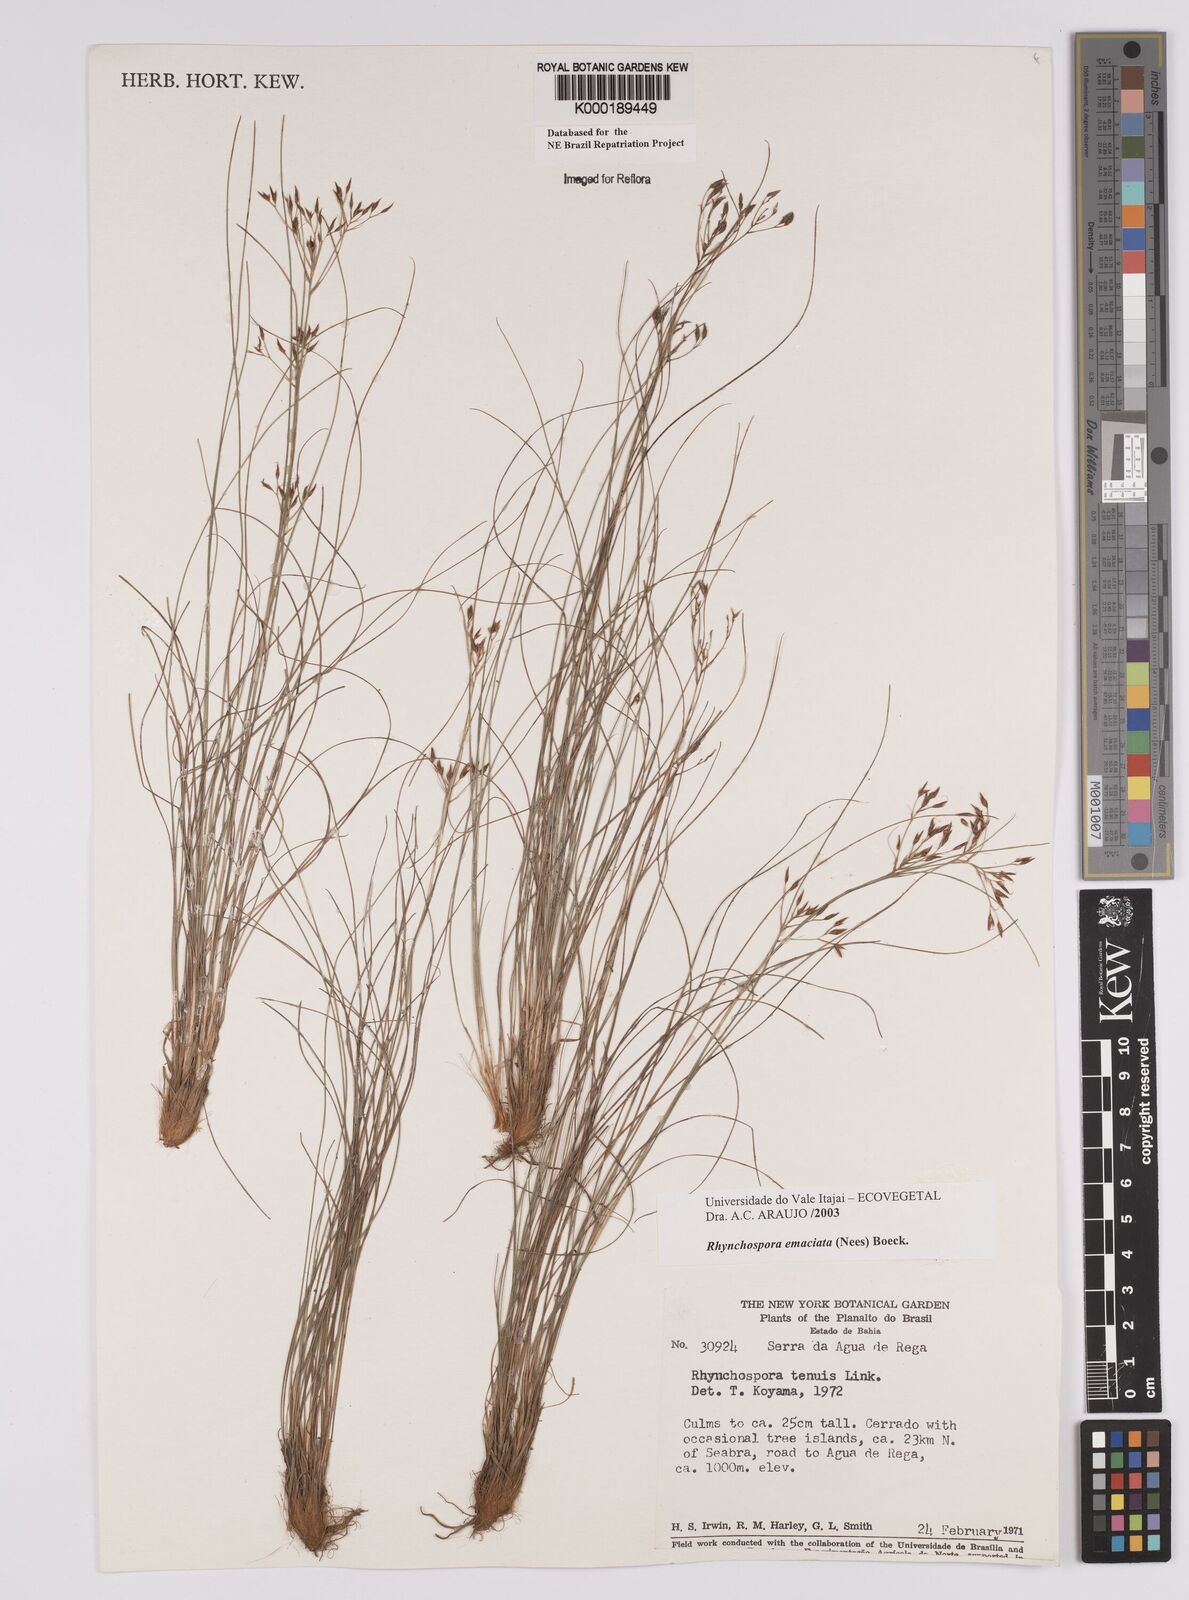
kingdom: Plantae
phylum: Tracheophyta
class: Liliopsida
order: Poales
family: Cyperaceae
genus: Rhynchospora
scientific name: Rhynchospora emaciata
